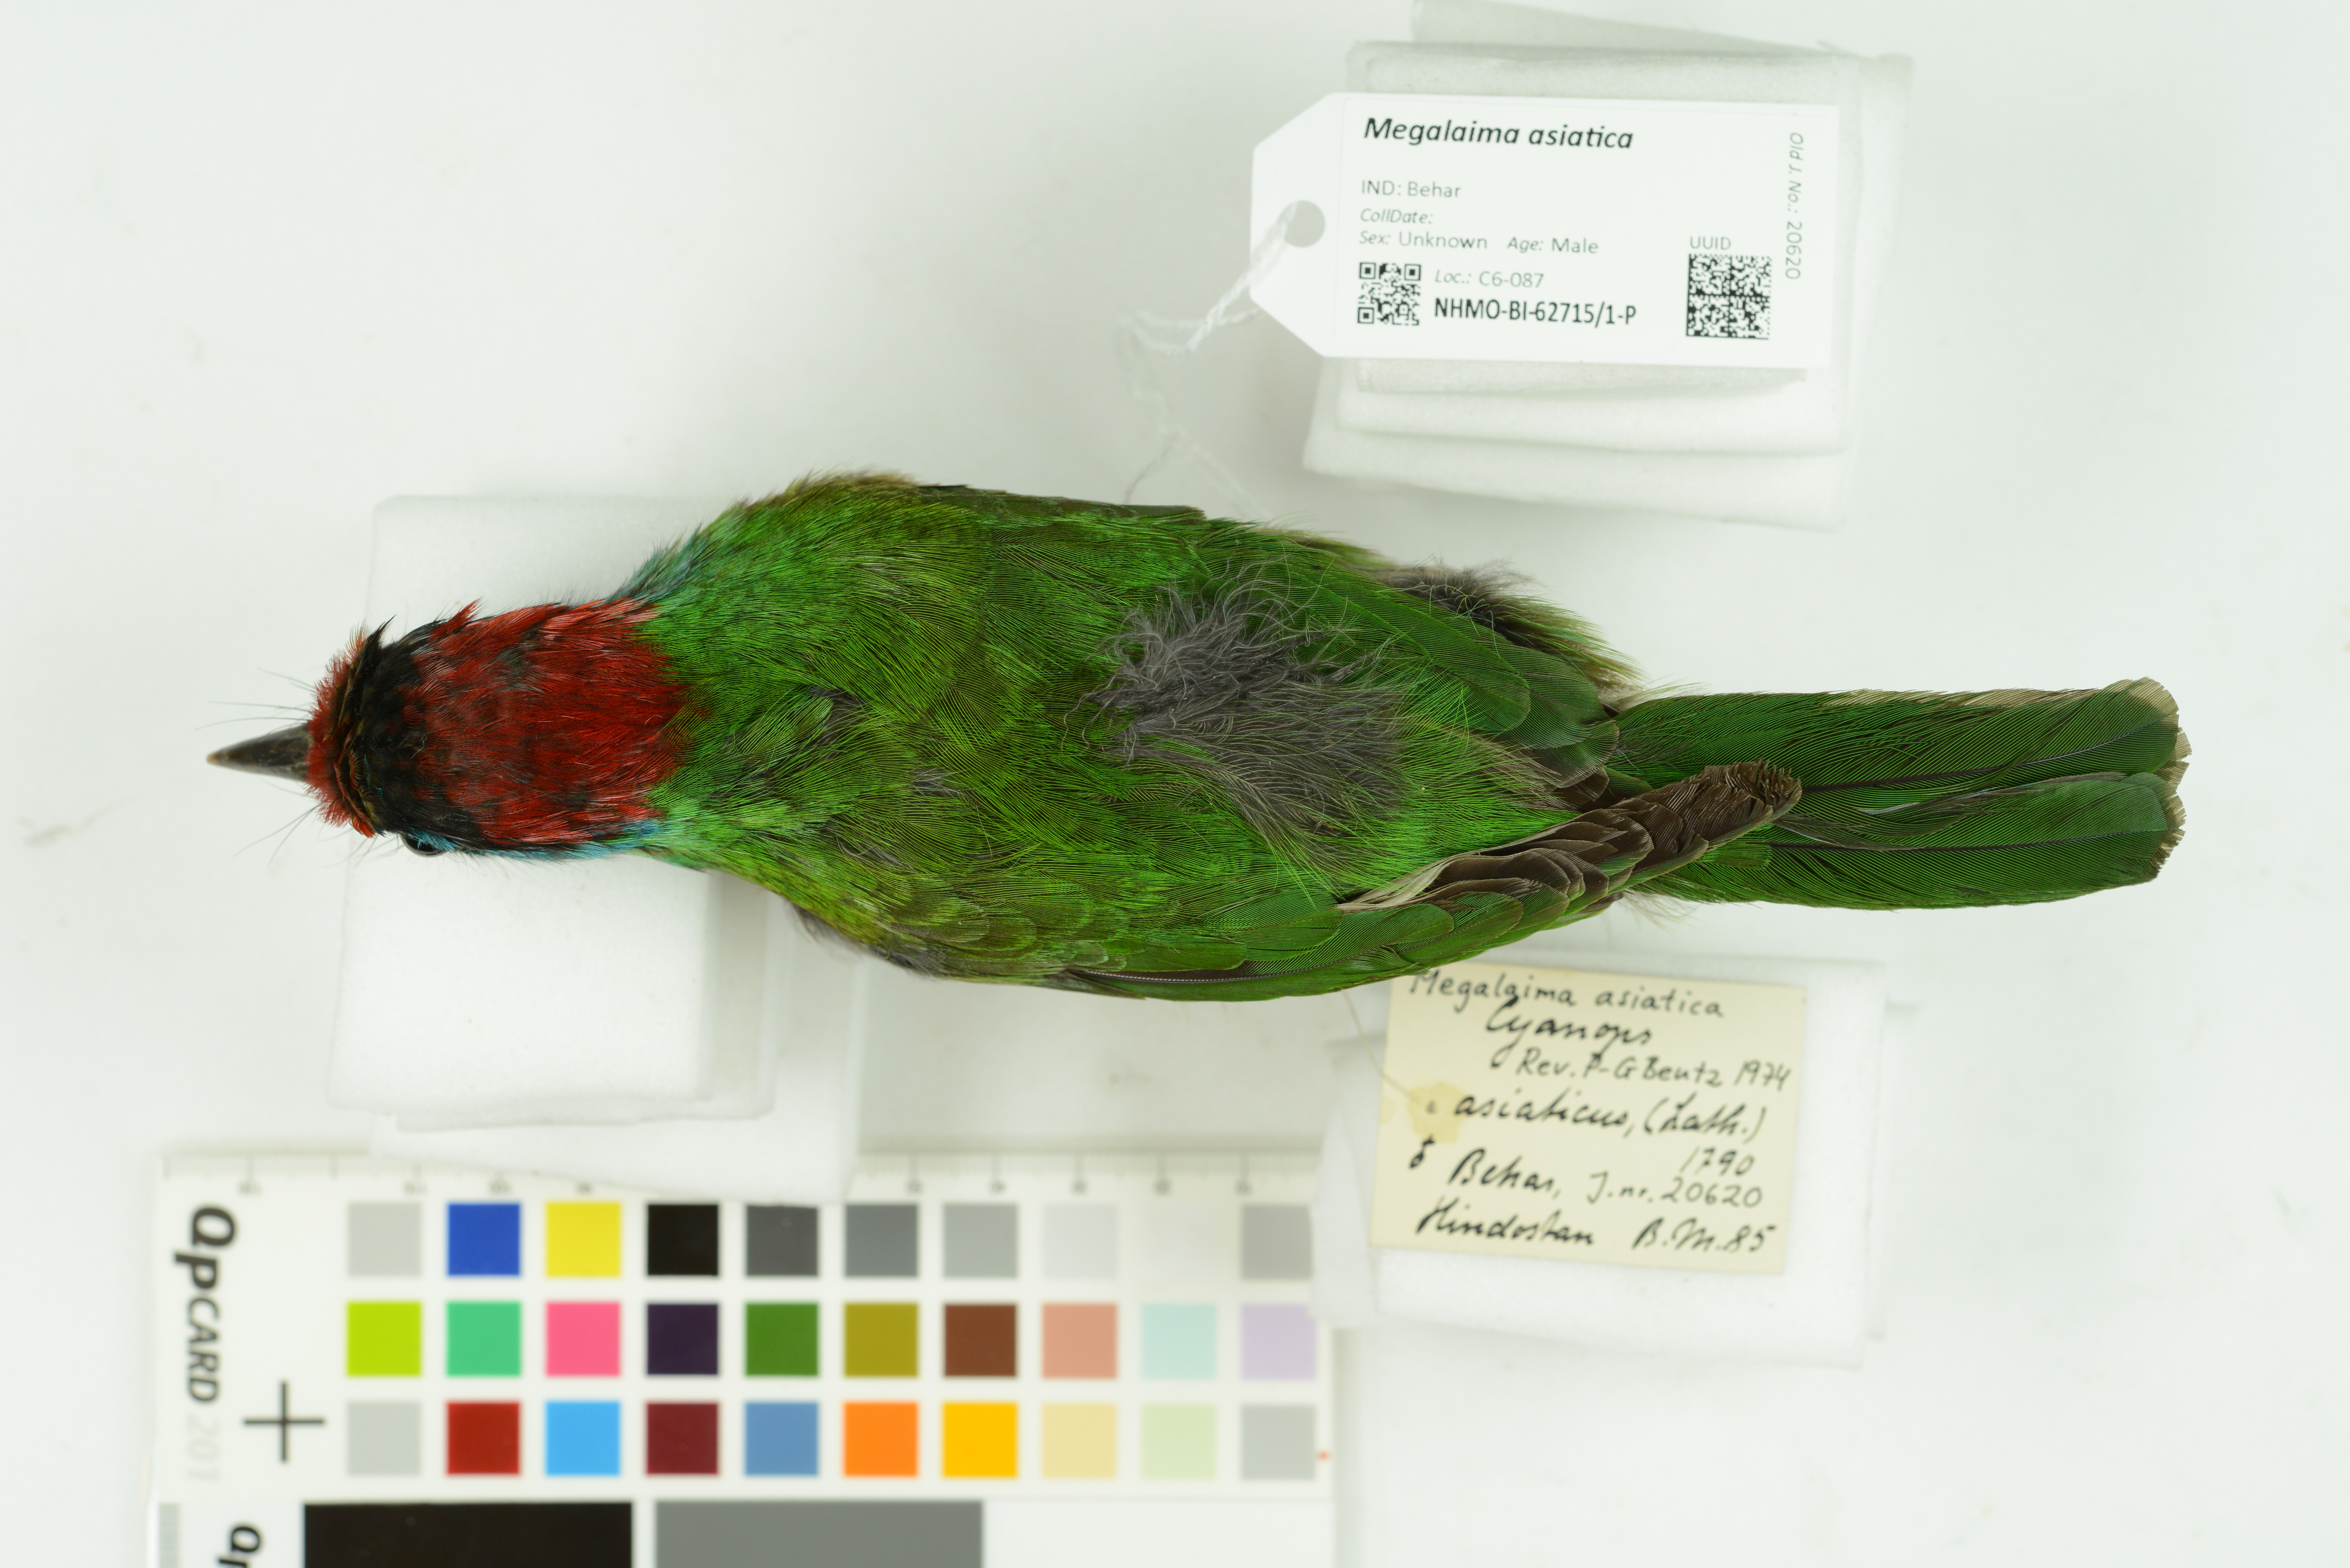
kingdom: Animalia
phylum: Chordata
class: Aves
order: Piciformes
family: Megalaimidae
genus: Psilopogon
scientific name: Psilopogon asiaticus
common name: Blue-throated barbet
